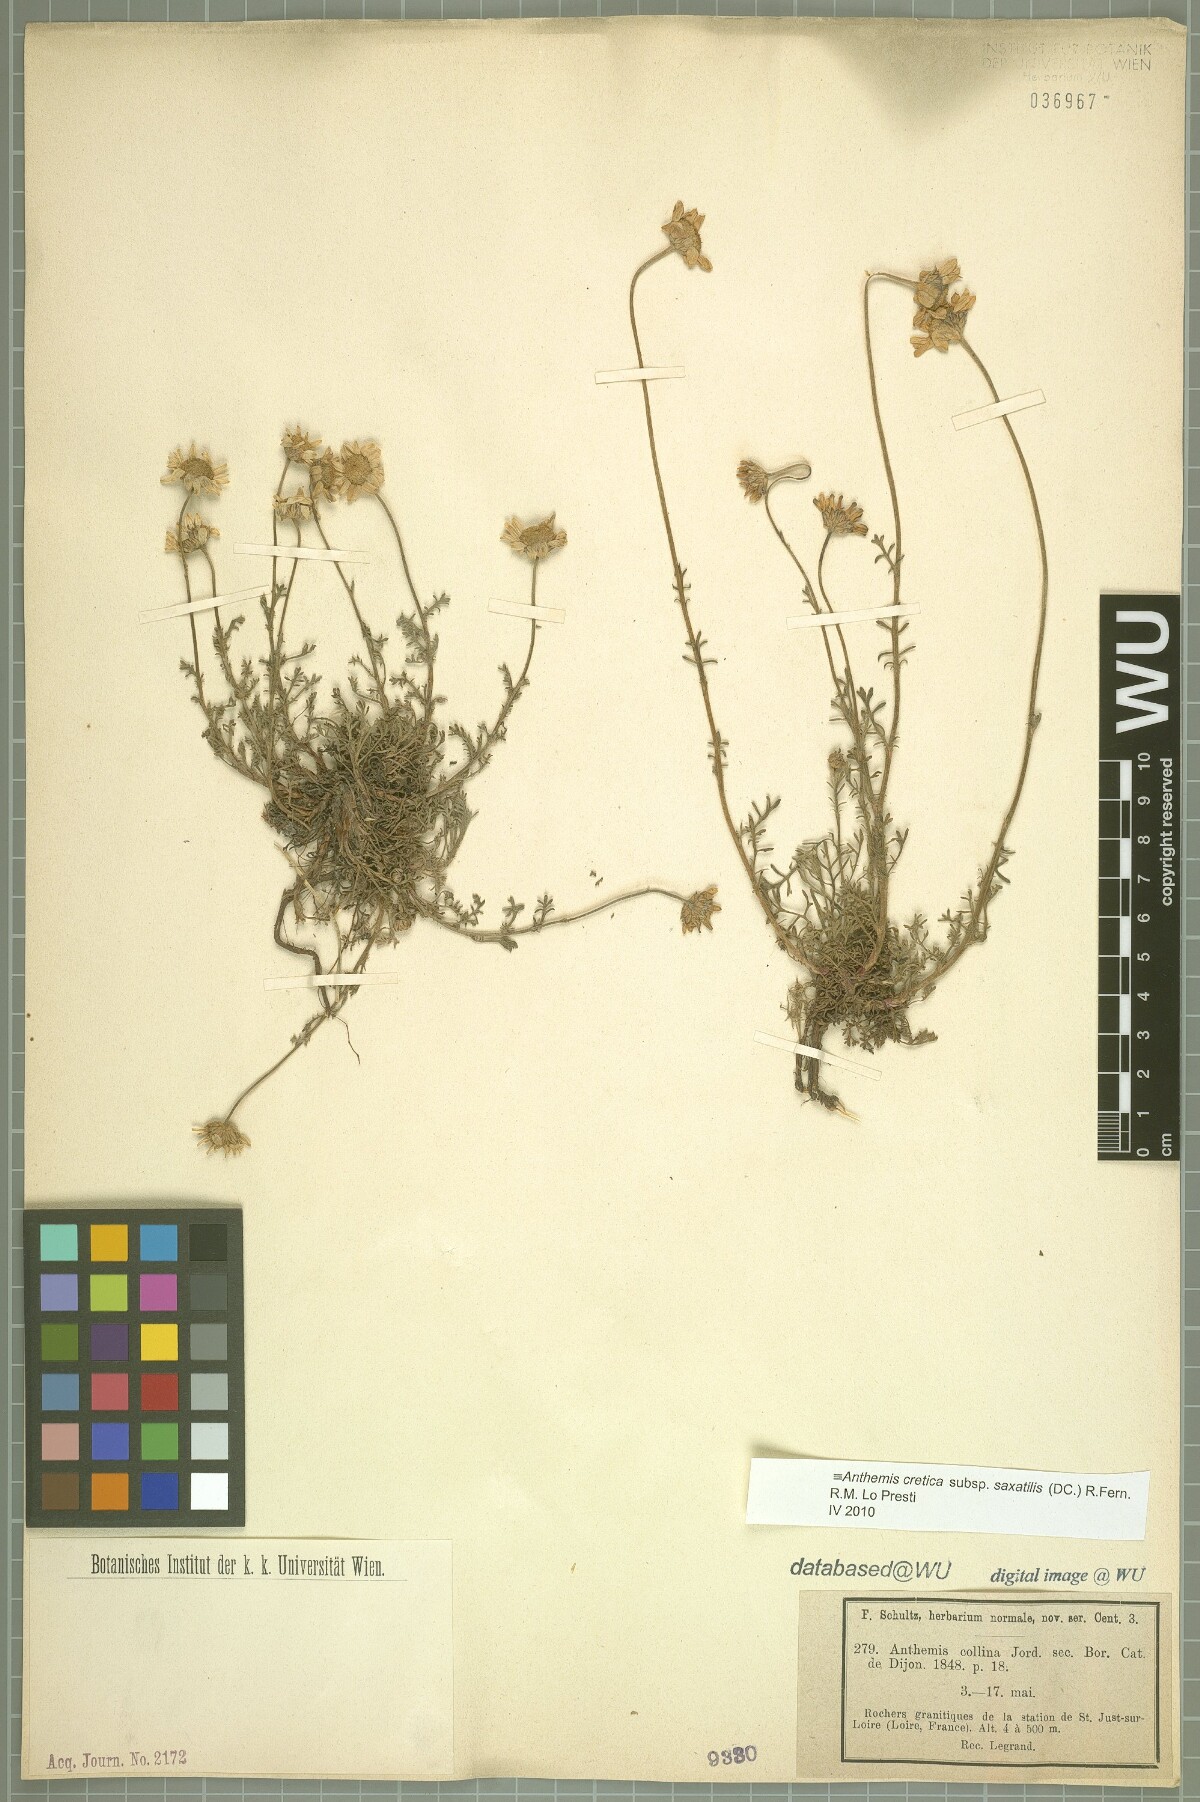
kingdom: Plantae
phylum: Tracheophyta
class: Magnoliopsida
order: Asterales
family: Asteraceae
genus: Anthemis
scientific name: Anthemis cretica
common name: Mountain dog-daisy
